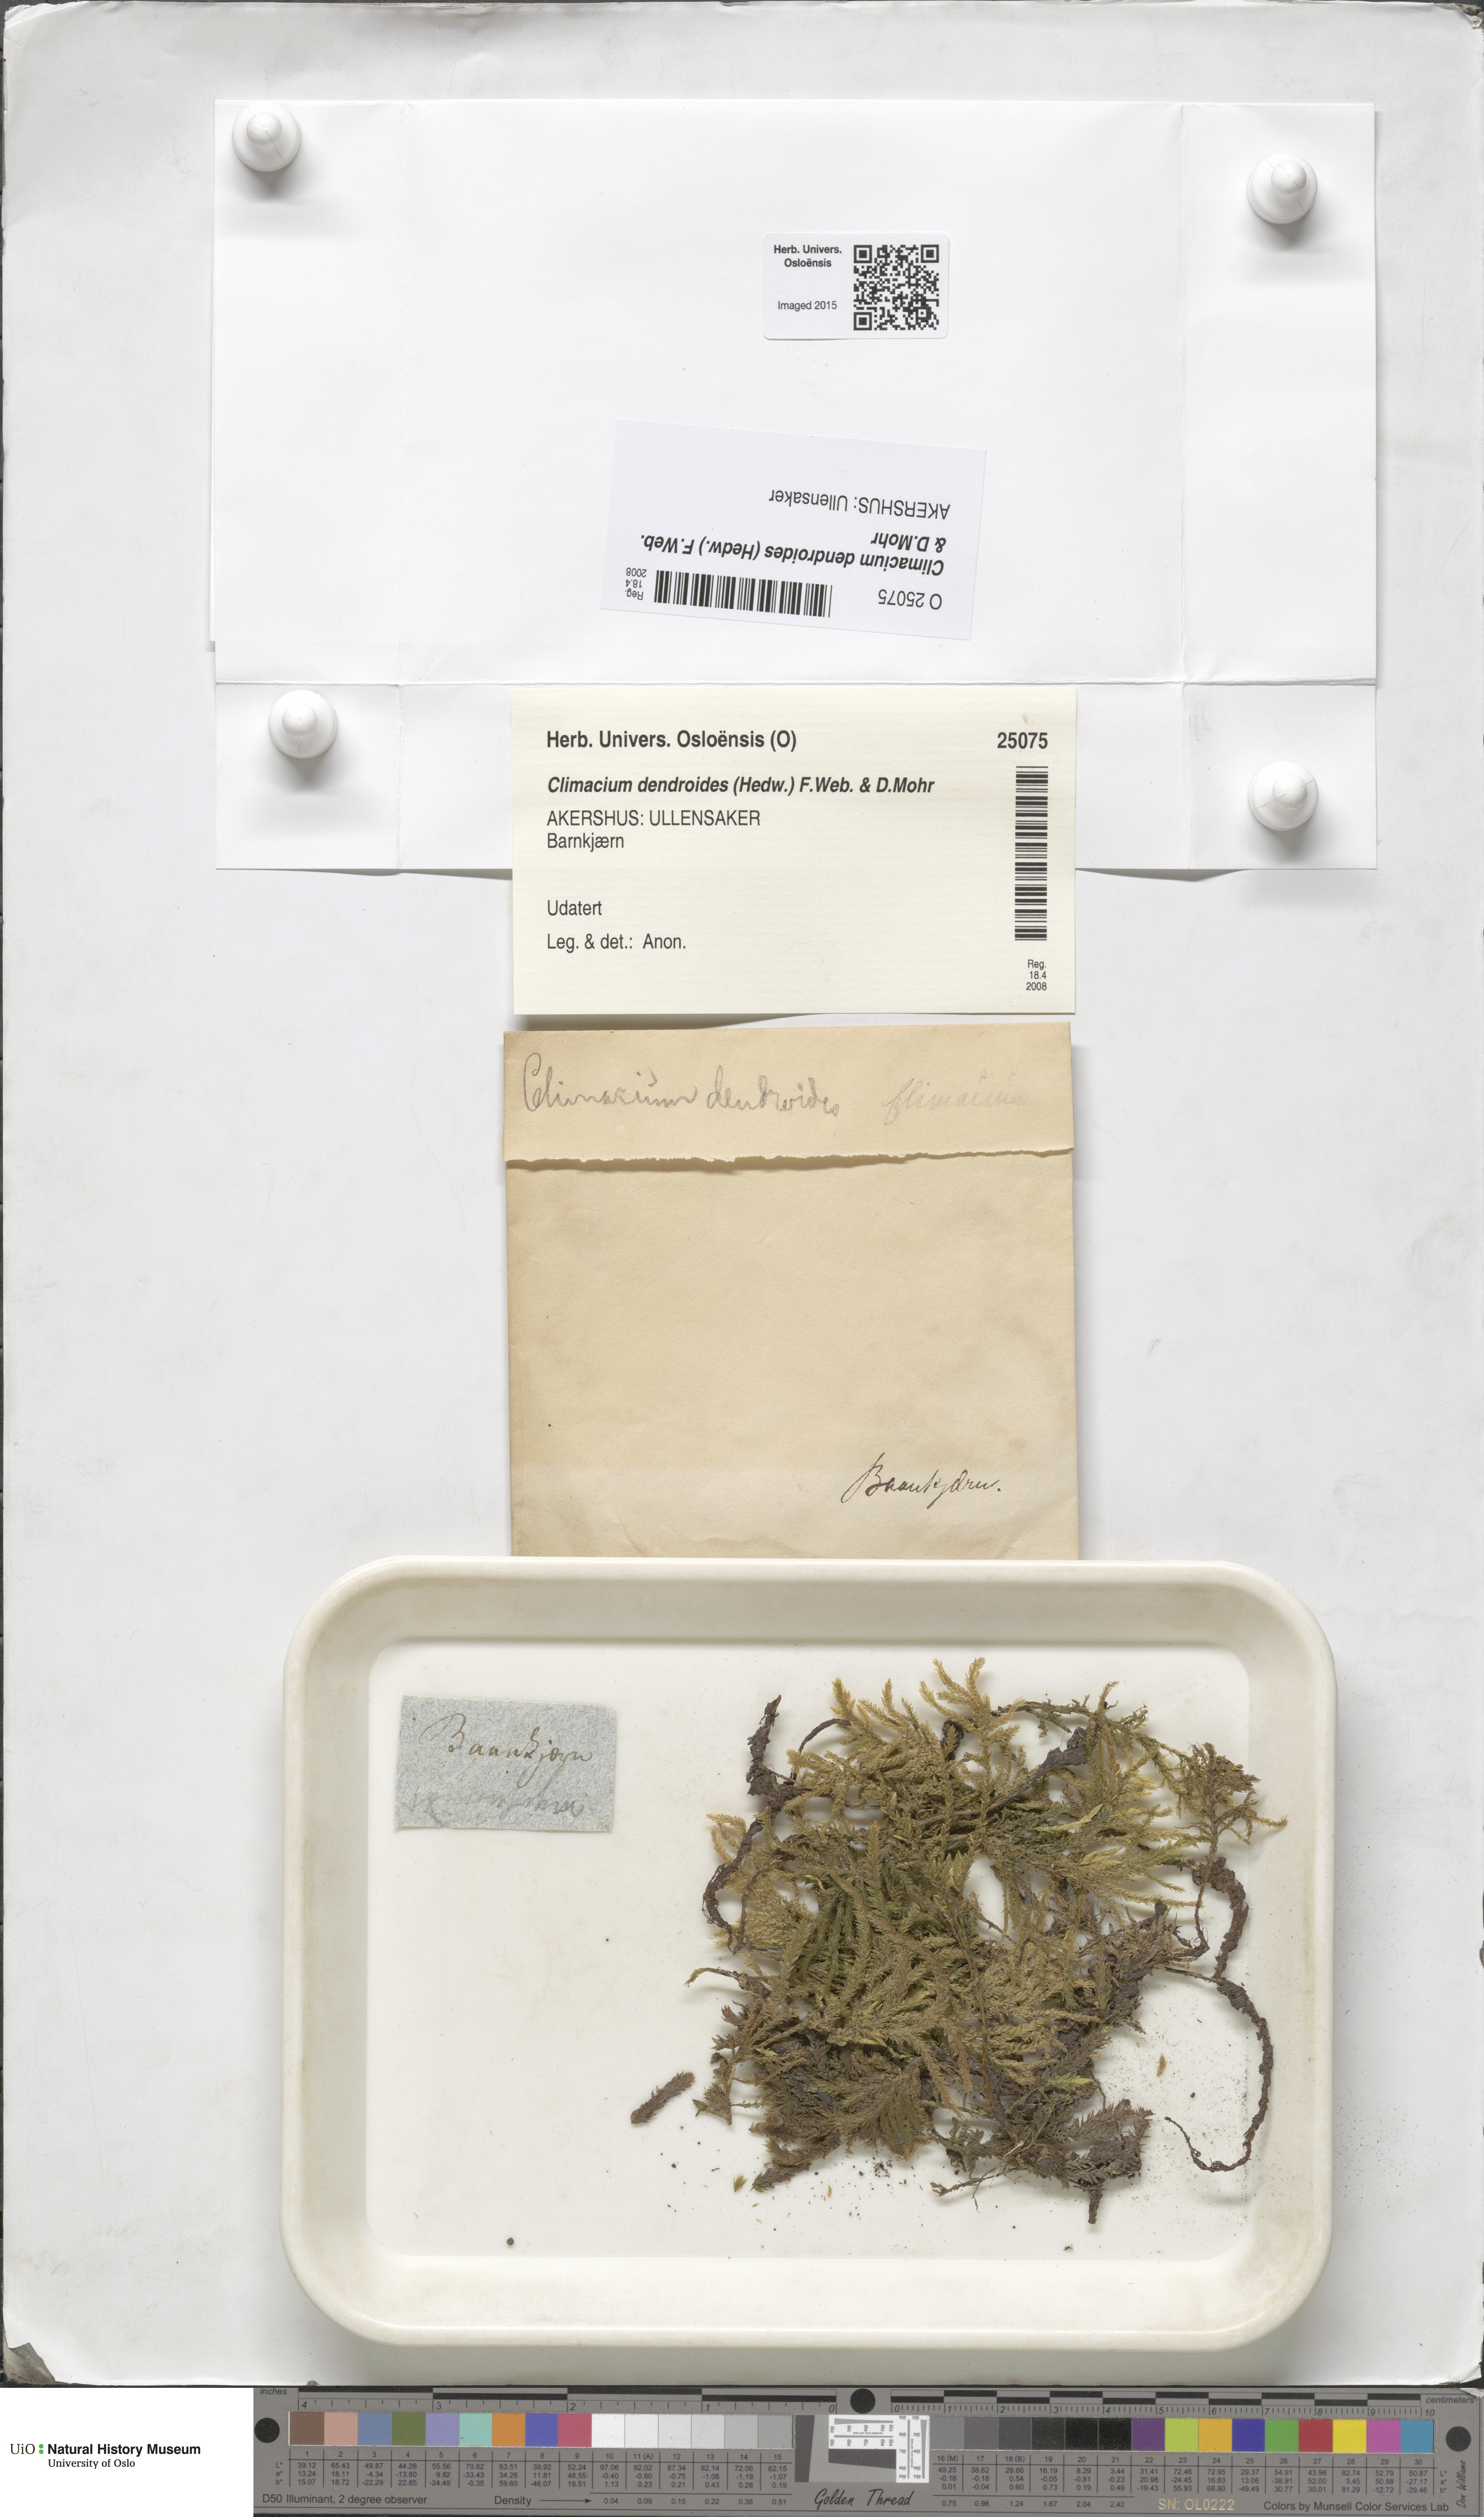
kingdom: Plantae
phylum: Bryophyta
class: Bryopsida
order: Hypnales
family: Climaciaceae
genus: Climacium
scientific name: Climacium dendroides
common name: Northern tree moss
